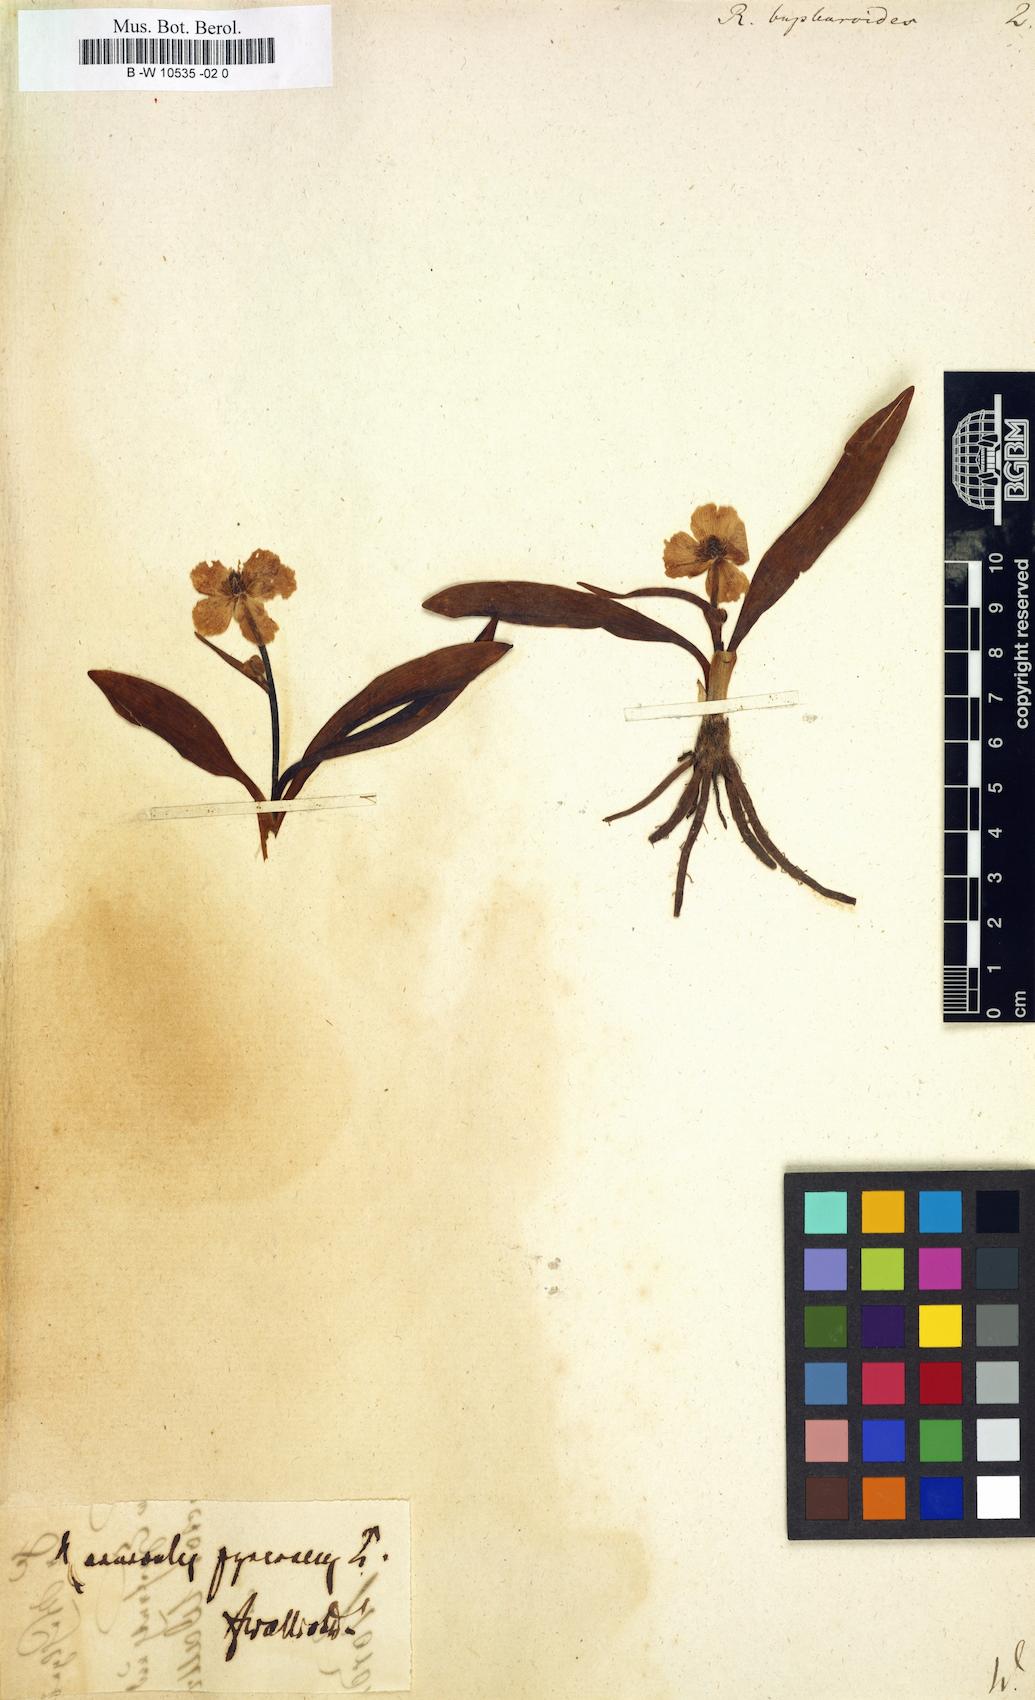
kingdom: Plantae
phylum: Tracheophyta
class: Magnoliopsida
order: Ranunculales
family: Ranunculaceae
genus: Ranunculus
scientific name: Ranunculus bupleuroides
